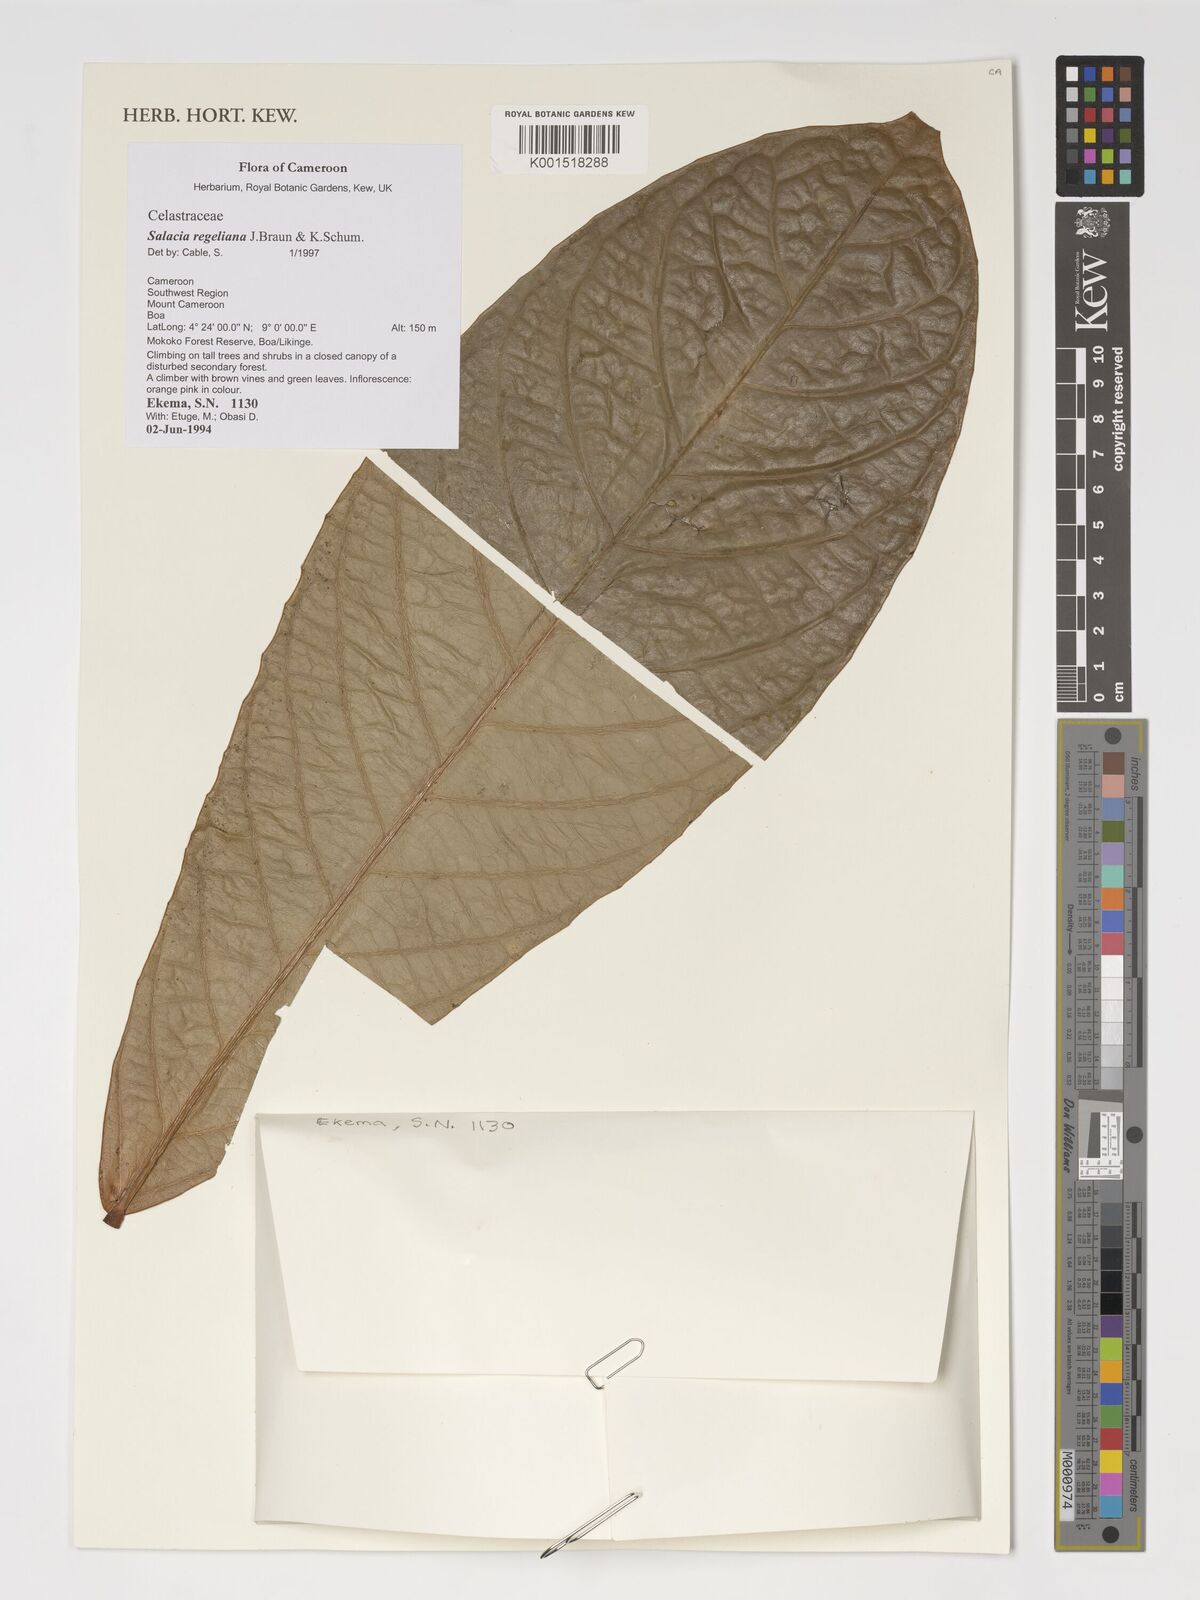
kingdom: Plantae
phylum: Tracheophyta
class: Magnoliopsida
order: Celastrales
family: Celastraceae
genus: Salacia
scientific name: Salacia regeliana
